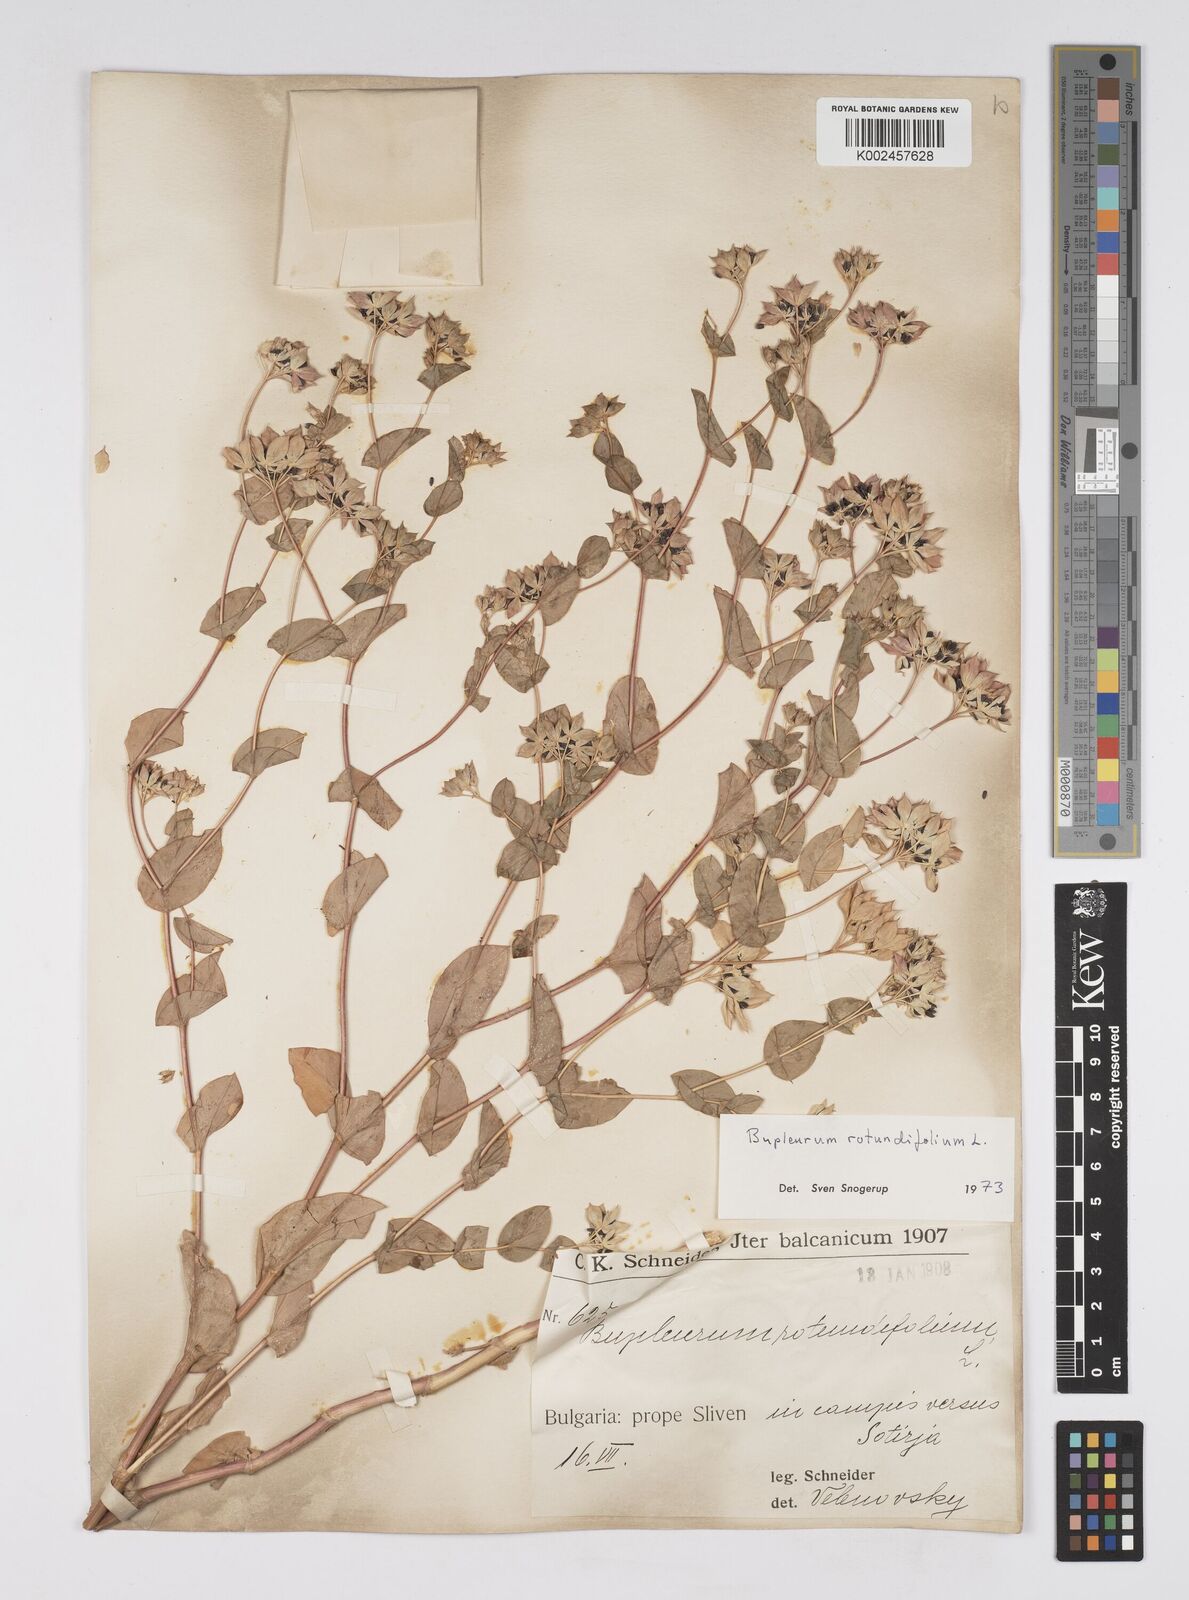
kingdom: Plantae
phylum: Tracheophyta
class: Magnoliopsida
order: Apiales
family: Apiaceae
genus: Bupleurum
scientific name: Bupleurum rotundifolium
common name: Thorow-wax
